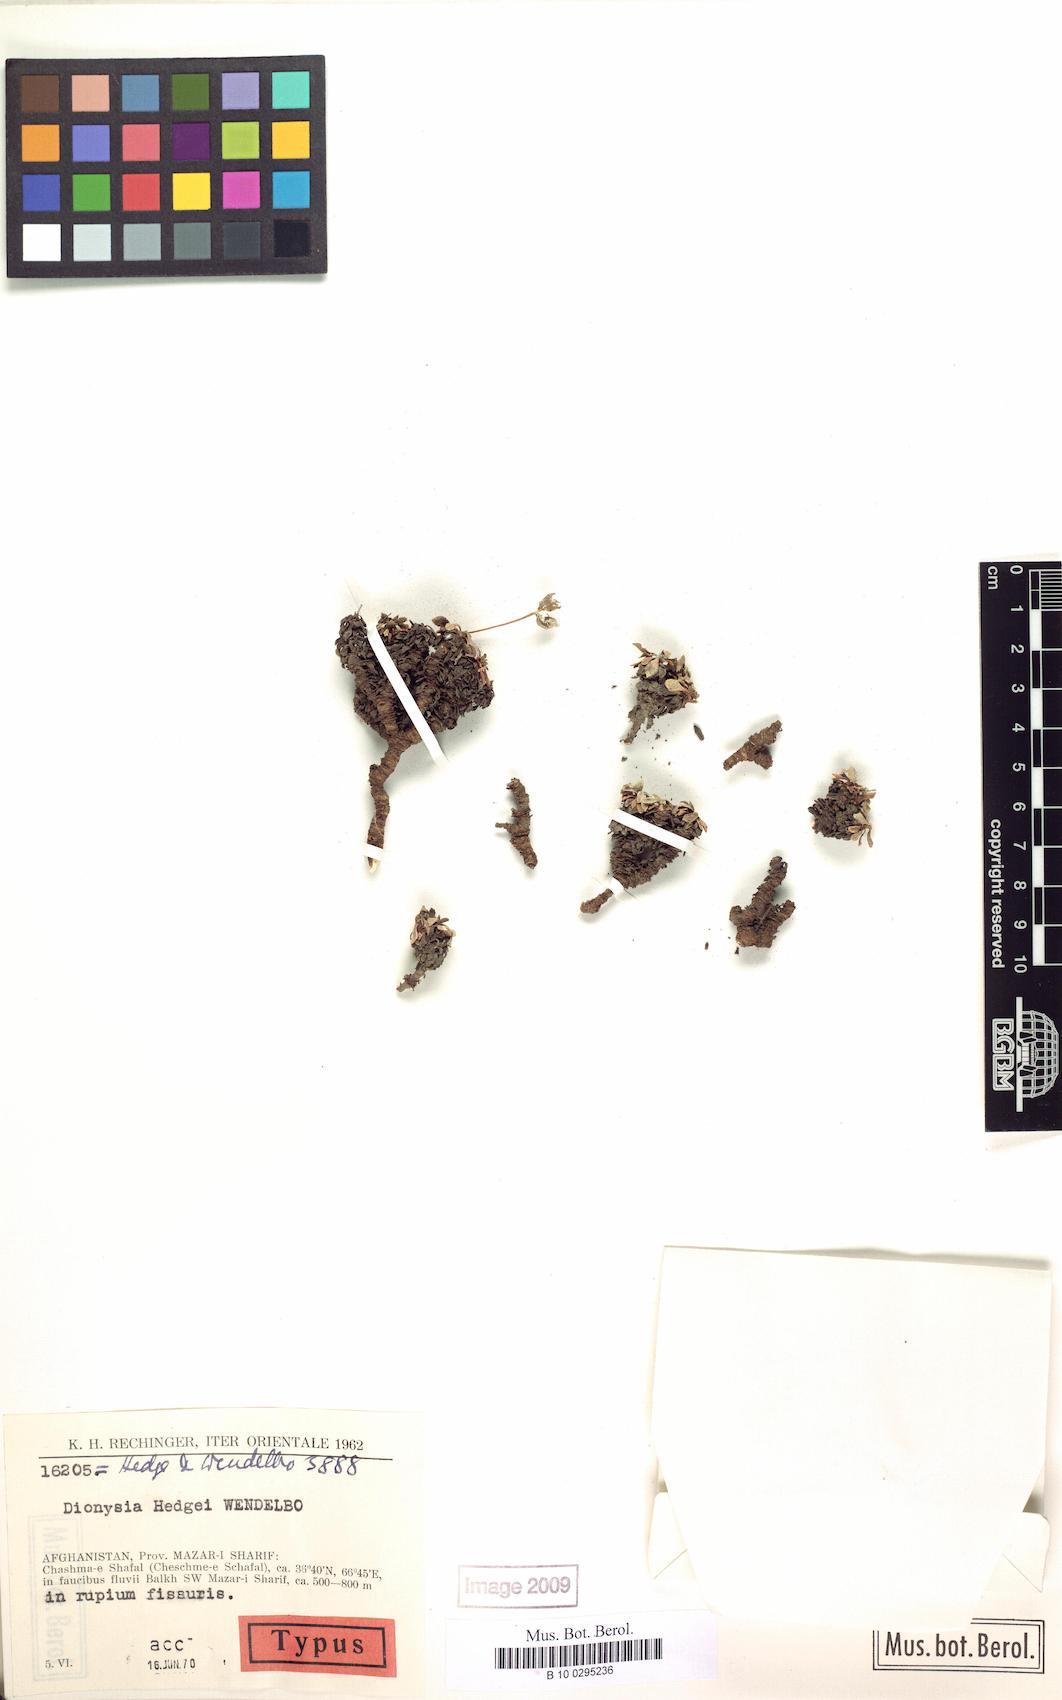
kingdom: Plantae
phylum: Tracheophyta
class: Magnoliopsida
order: Ericales
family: Primulaceae
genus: Dionysia
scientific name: Dionysia hedgei
